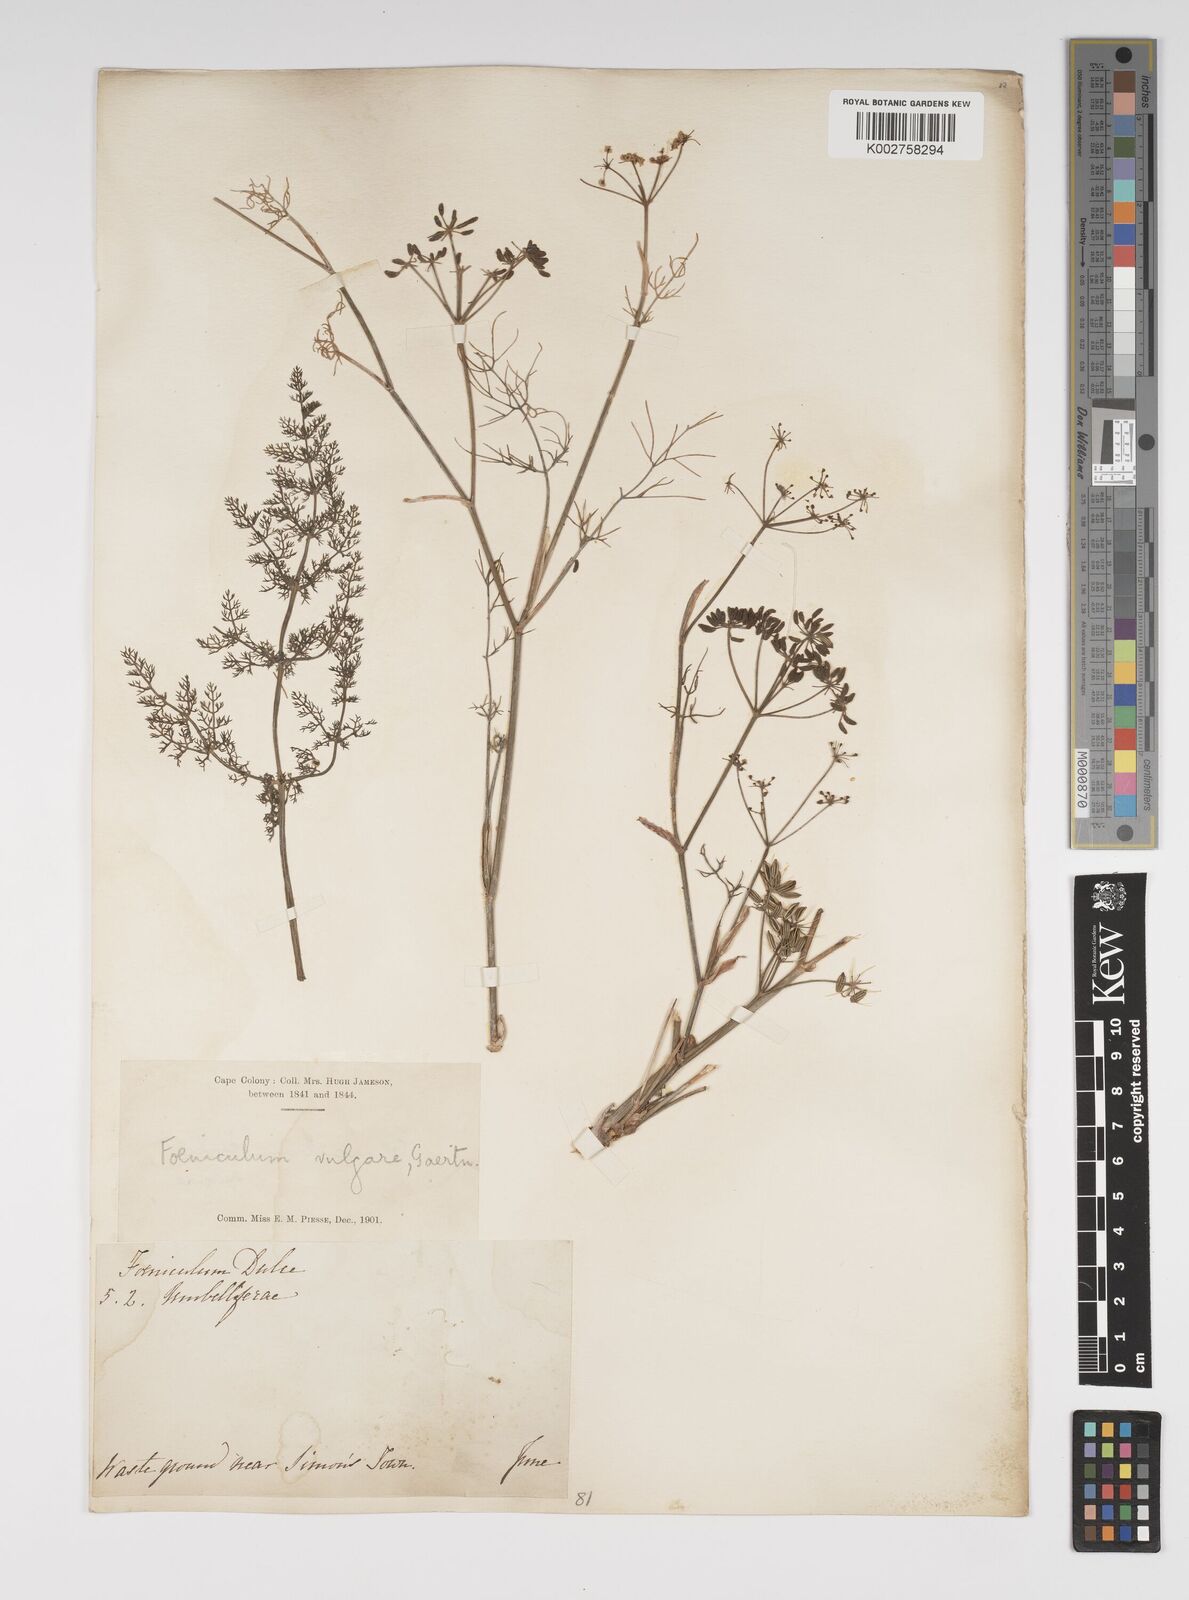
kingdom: Plantae
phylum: Tracheophyta
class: Magnoliopsida
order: Apiales
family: Apiaceae
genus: Foeniculum
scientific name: Foeniculum
